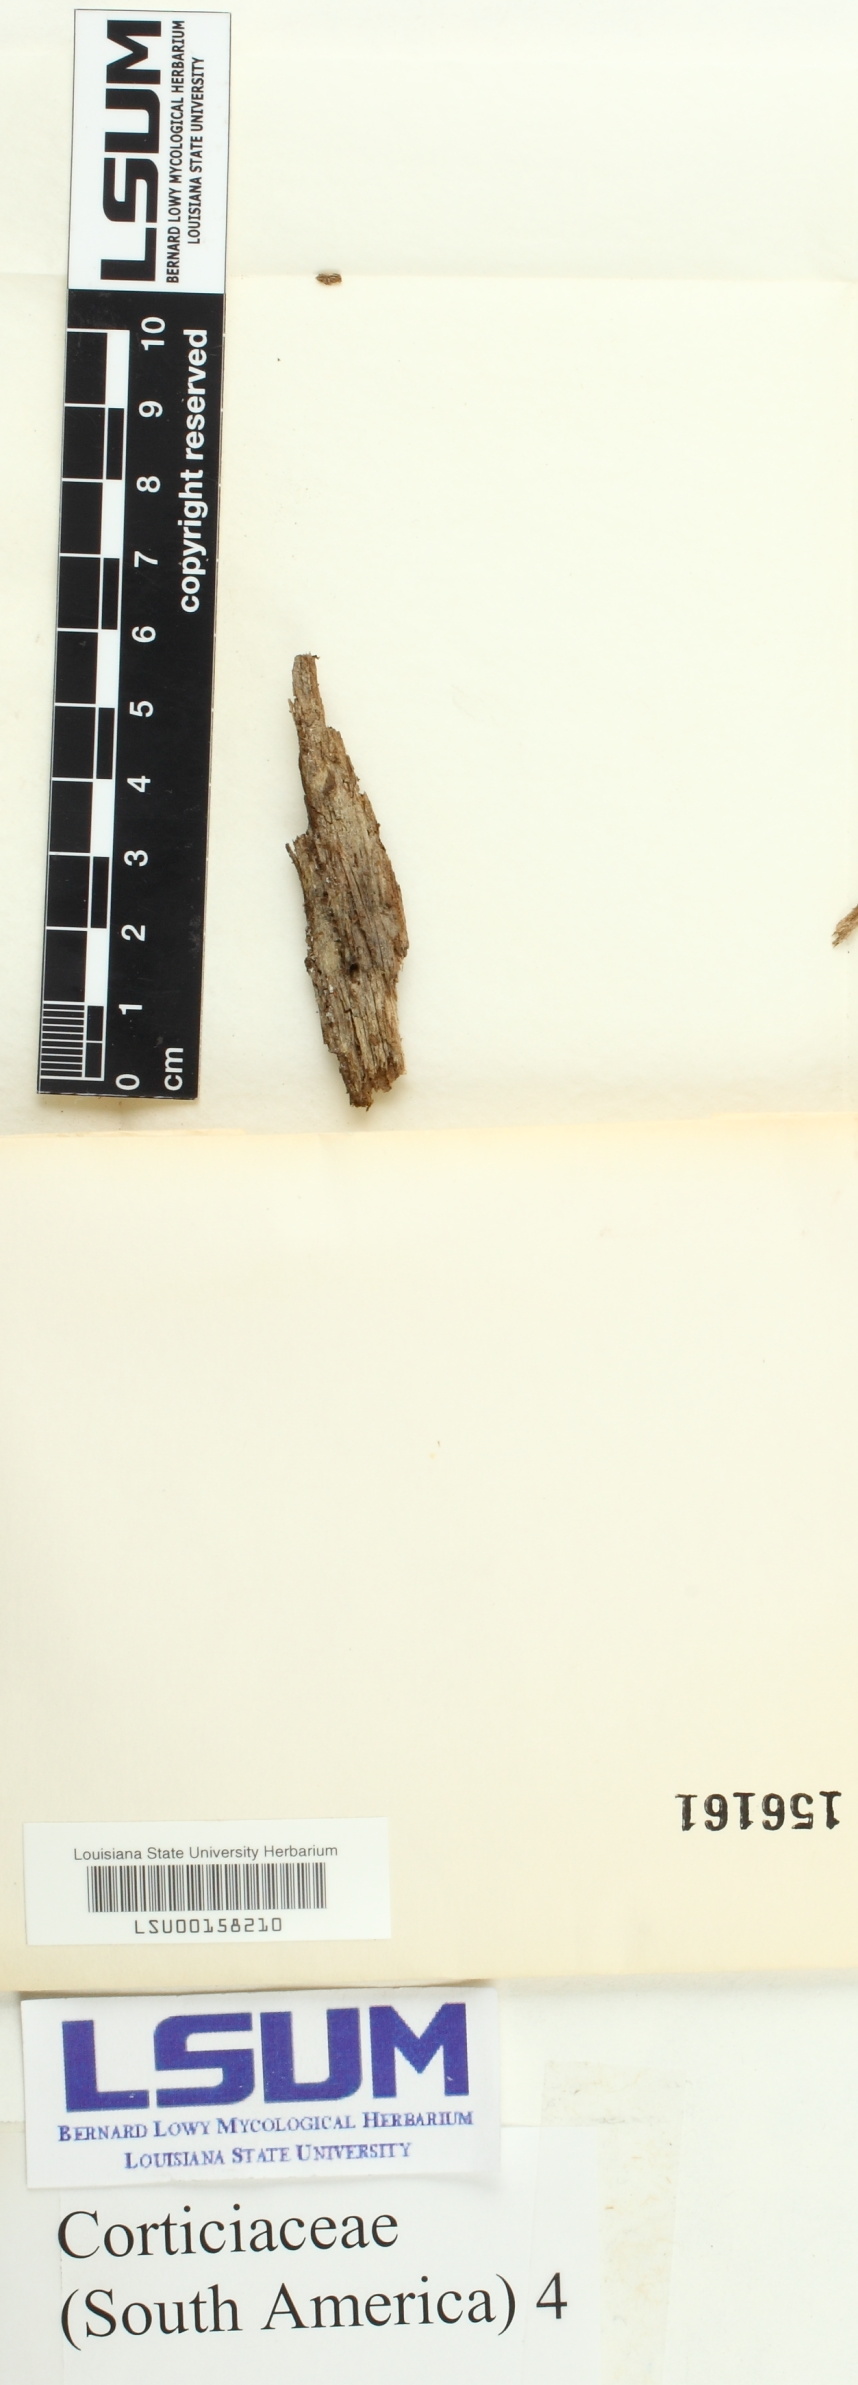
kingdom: Fungi
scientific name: Fungi
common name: Fungi
